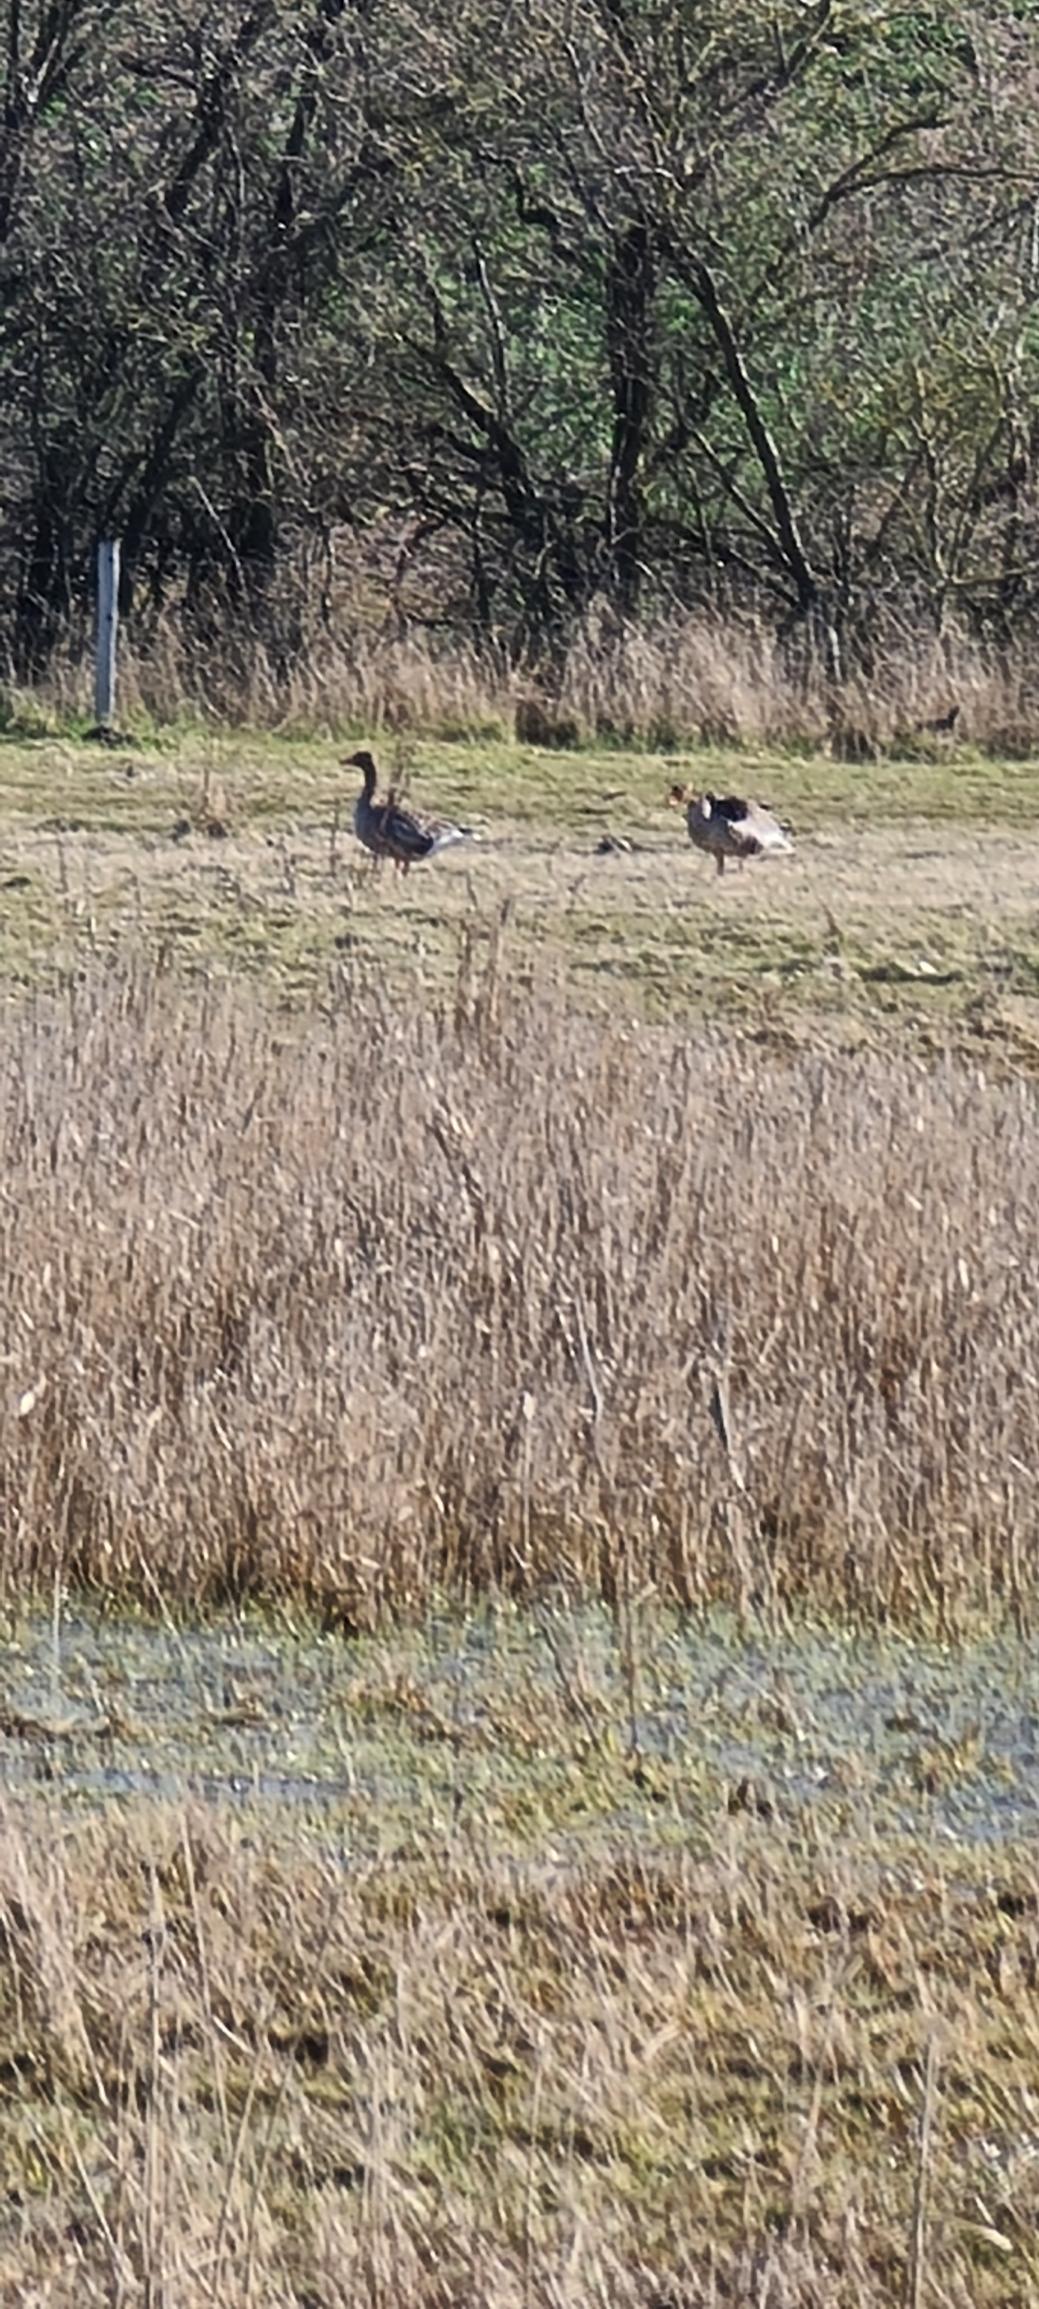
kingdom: Animalia
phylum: Chordata
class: Aves
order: Anseriformes
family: Anatidae
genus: Anser
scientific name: Anser anser
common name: Grågås
